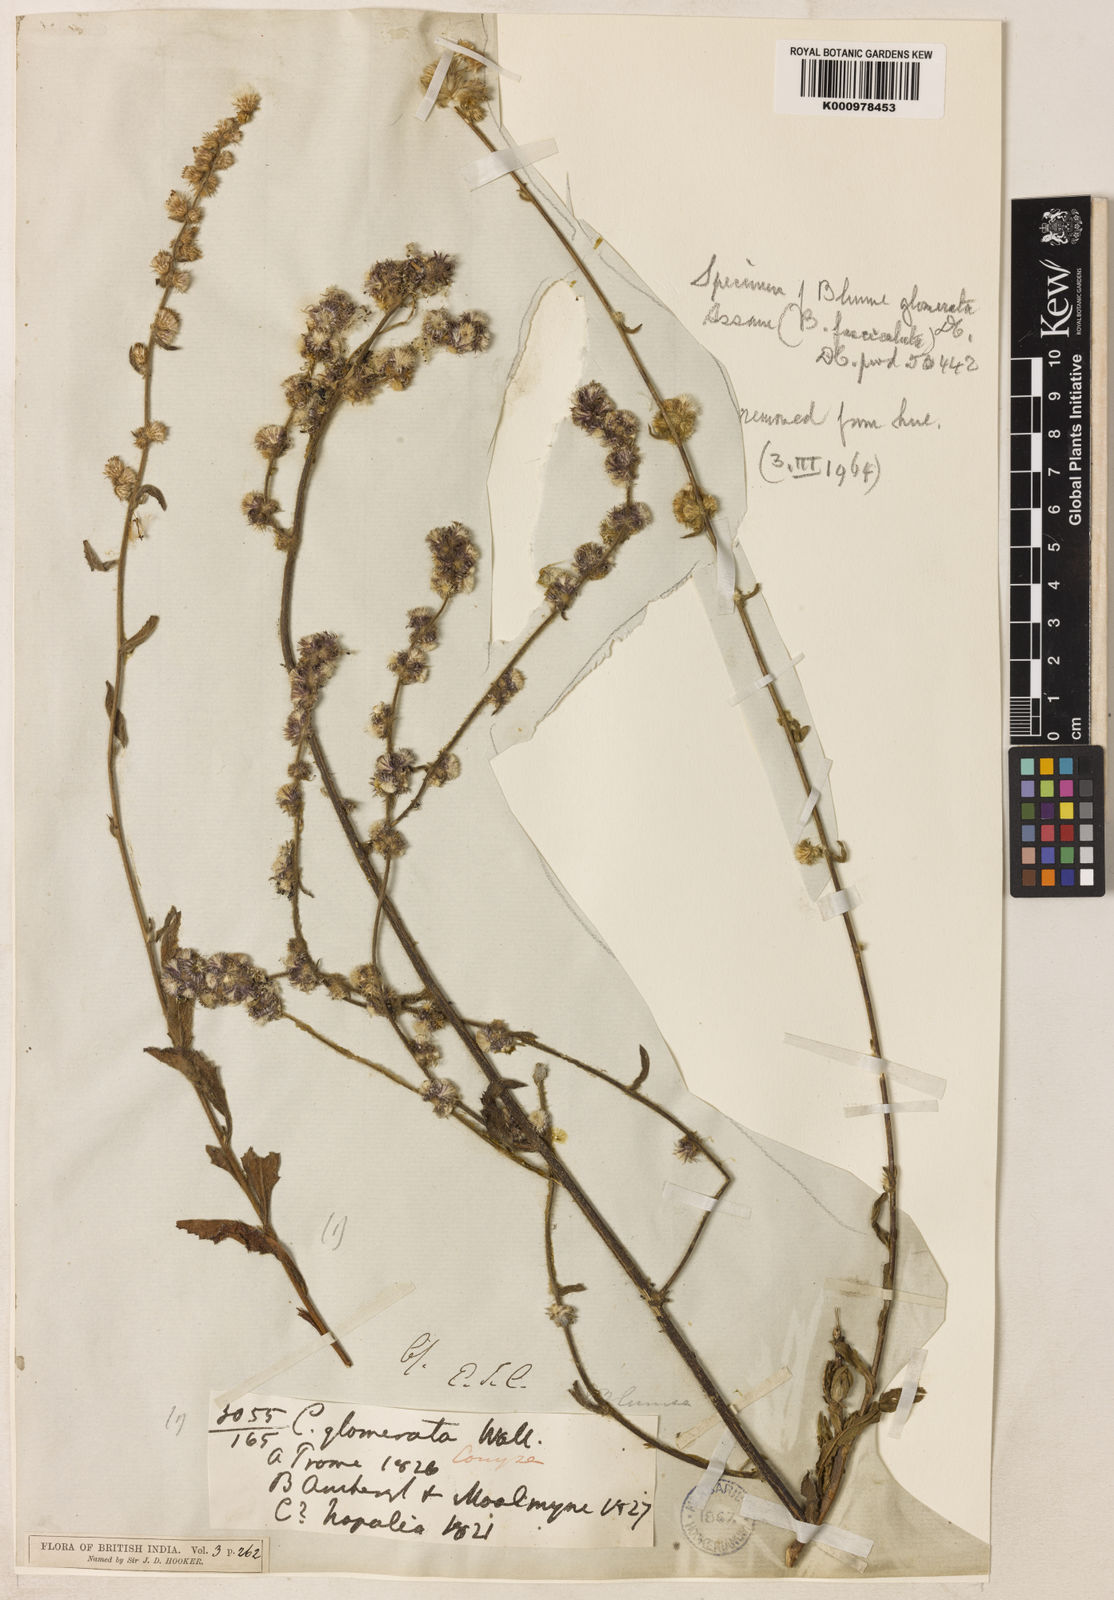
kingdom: Plantae
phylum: Tracheophyta
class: Magnoliopsida
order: Asterales
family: Asteraceae
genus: Blumea
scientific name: Blumea fistulosa
